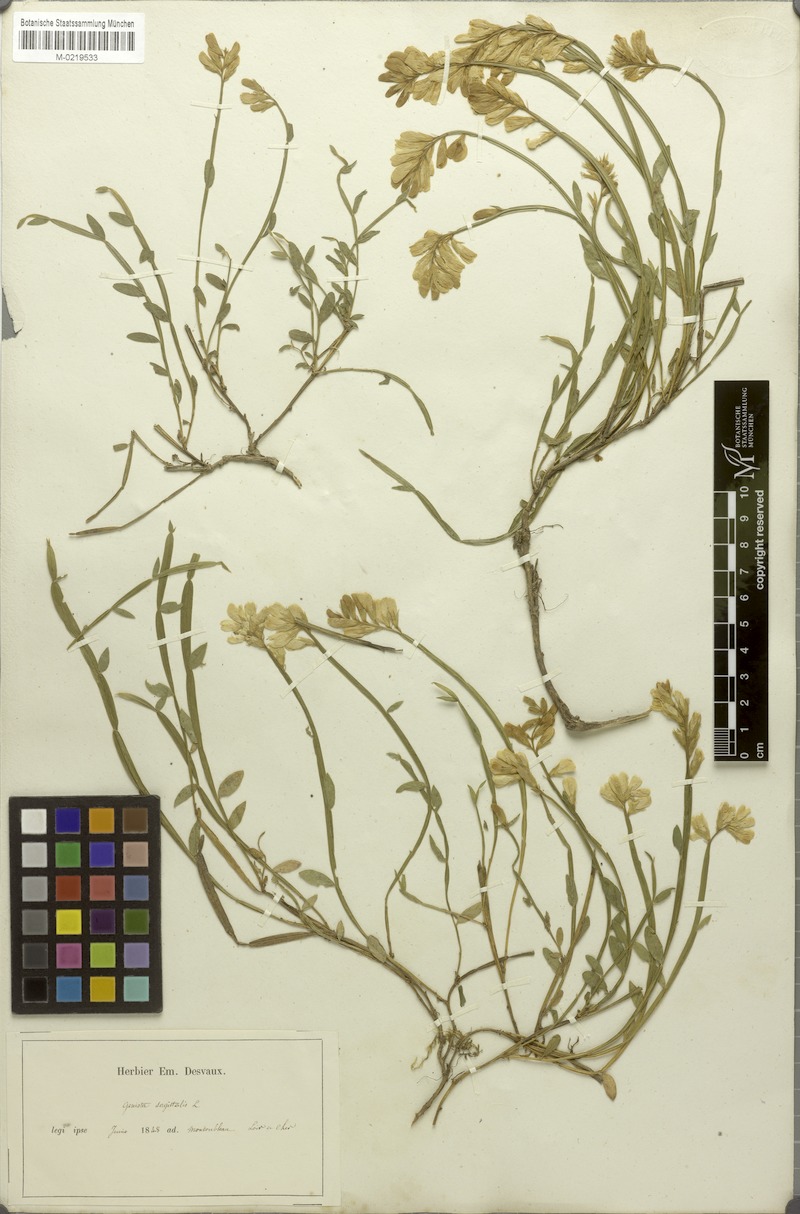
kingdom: Plantae
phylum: Tracheophyta
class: Magnoliopsida
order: Fabales
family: Fabaceae
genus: Genista
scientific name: Genista sagittalis
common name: Winged greenweed
